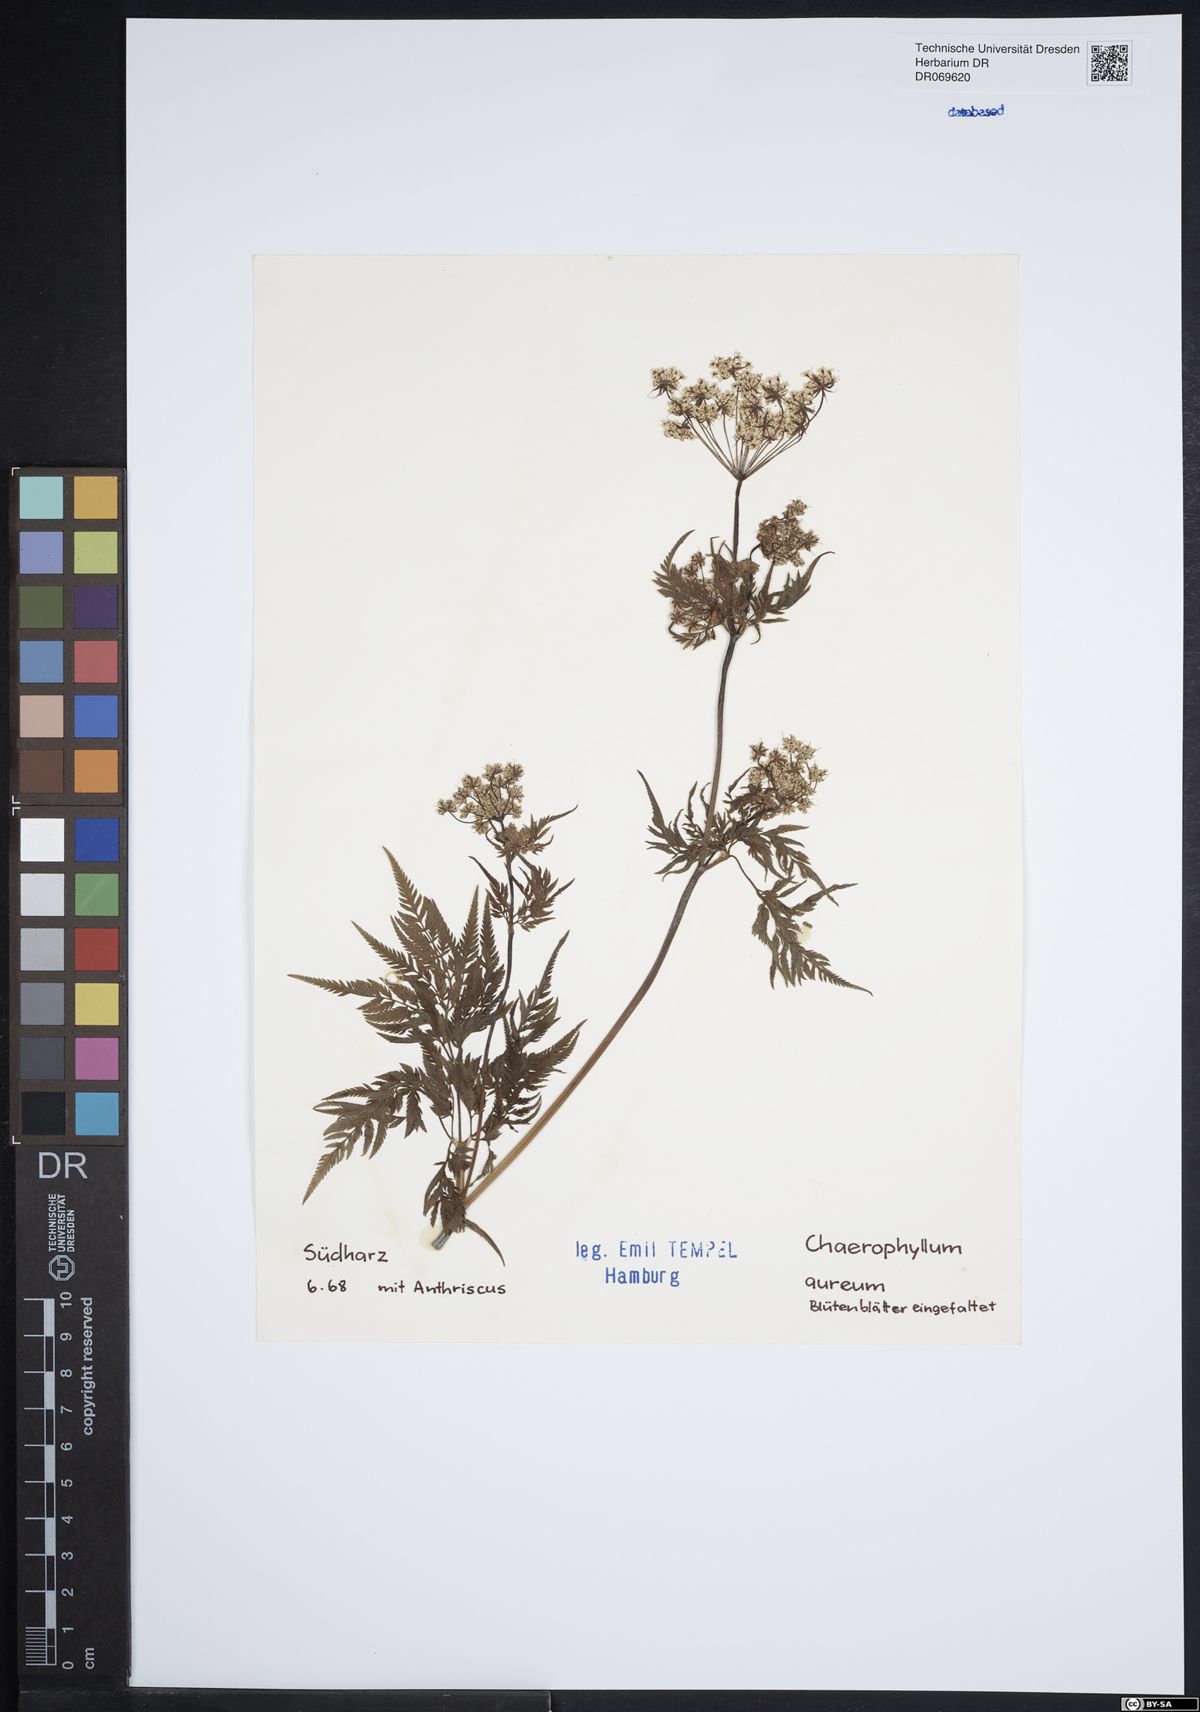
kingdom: Plantae
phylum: Tracheophyta
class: Magnoliopsida
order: Apiales
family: Apiaceae
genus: Chaerophyllum
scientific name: Chaerophyllum aureum
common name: Golden chervil
